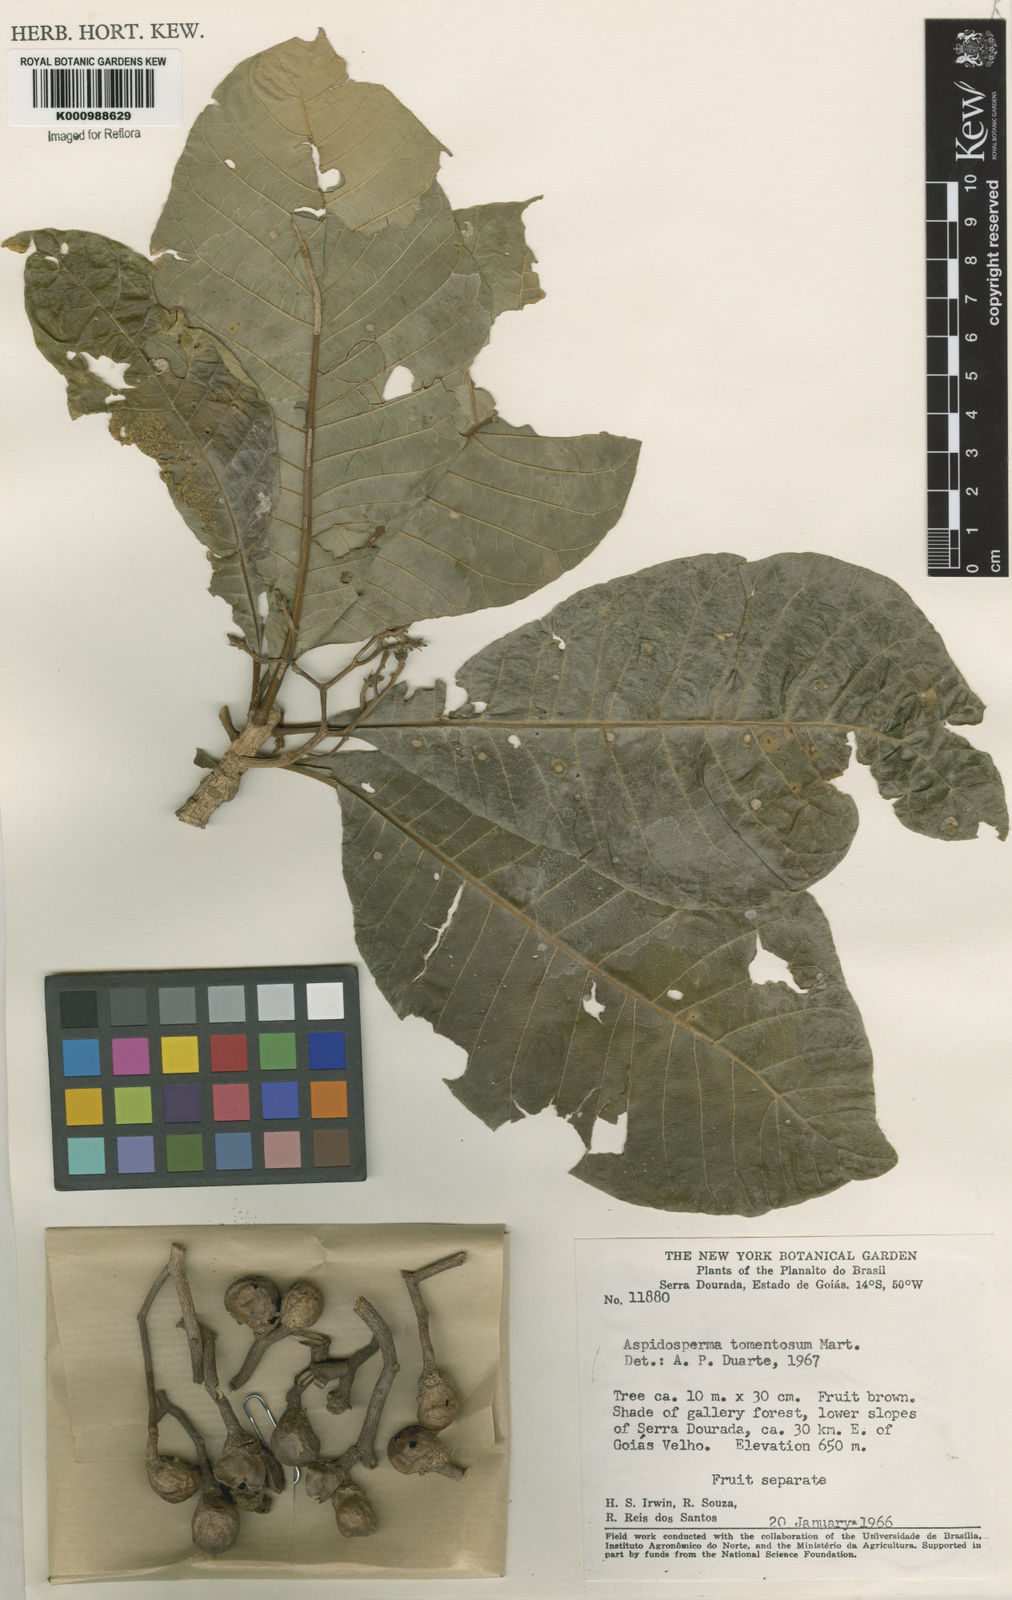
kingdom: Plantae
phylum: Tracheophyta
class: Magnoliopsida
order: Gentianales
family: Apocynaceae
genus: Aspidosperma
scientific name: Aspidosperma tomentosum
